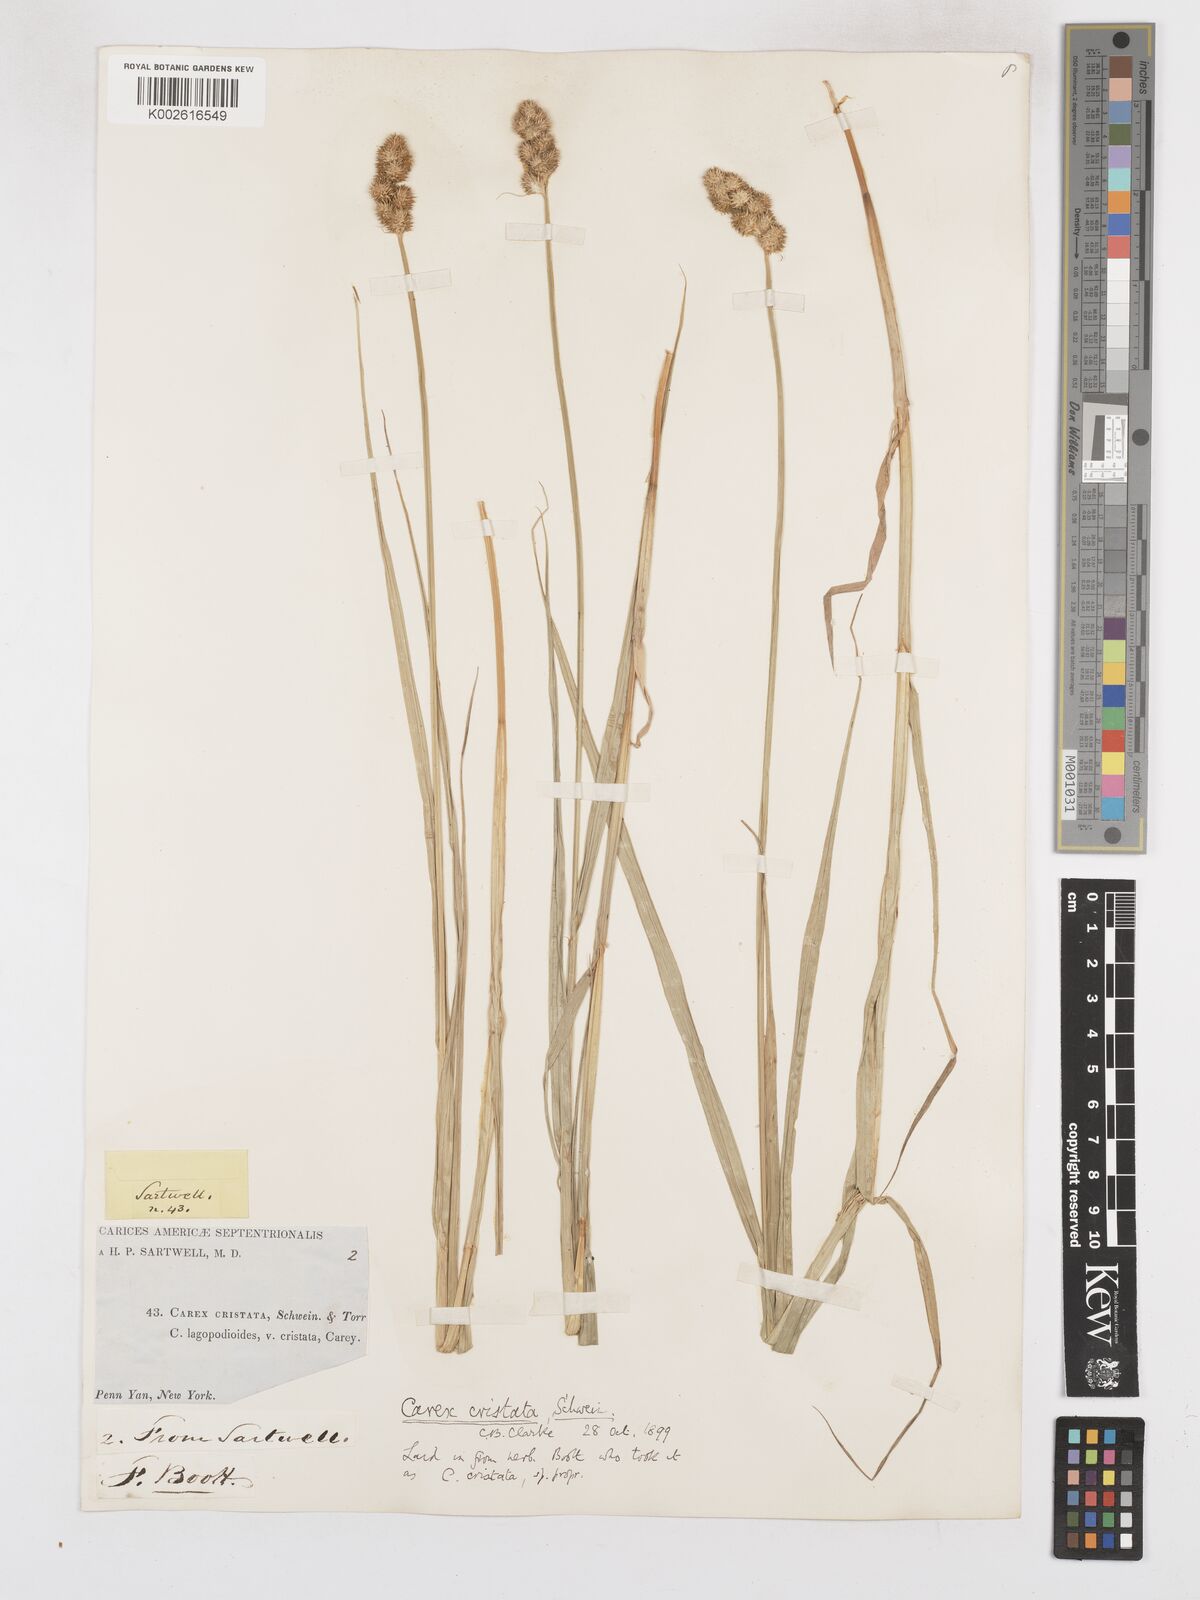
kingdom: Plantae
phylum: Tracheophyta
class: Liliopsida
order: Poales
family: Cyperaceae
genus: Carex
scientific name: Carex cristatella
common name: Crested oval sedge
